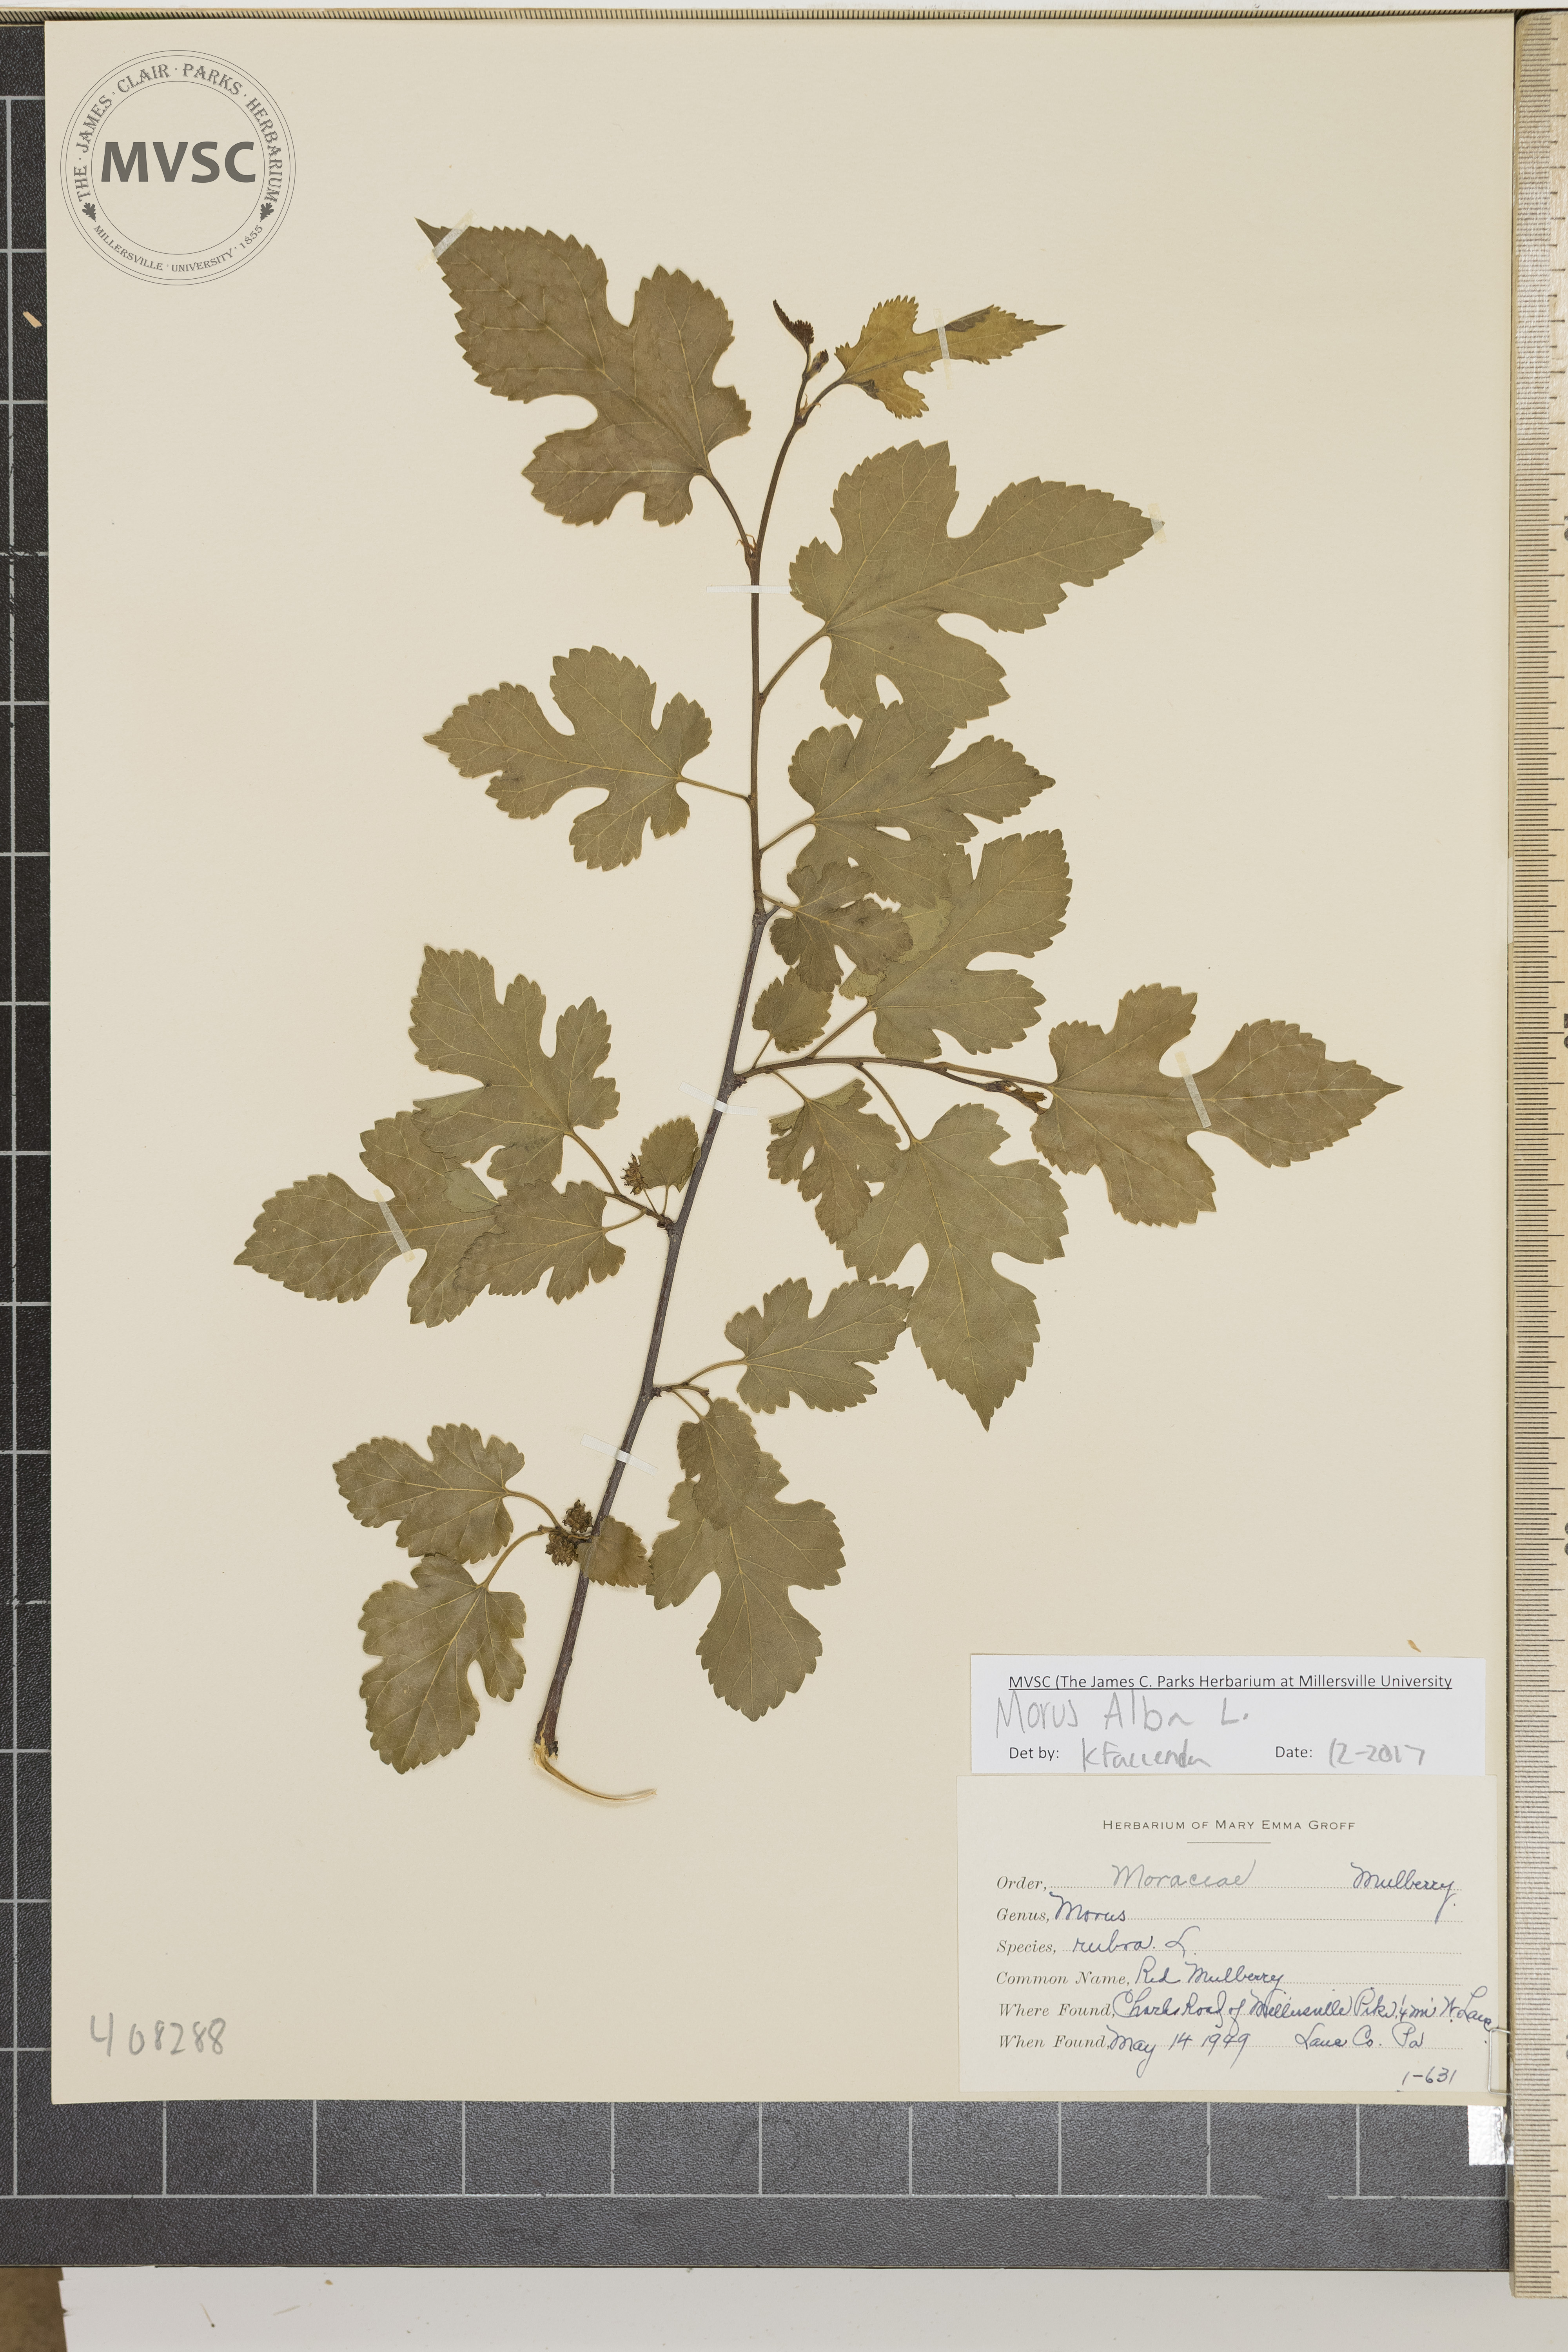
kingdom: Plantae
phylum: Tracheophyta
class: Magnoliopsida
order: Rosales
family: Moraceae
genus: Morus
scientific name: Morus alba
